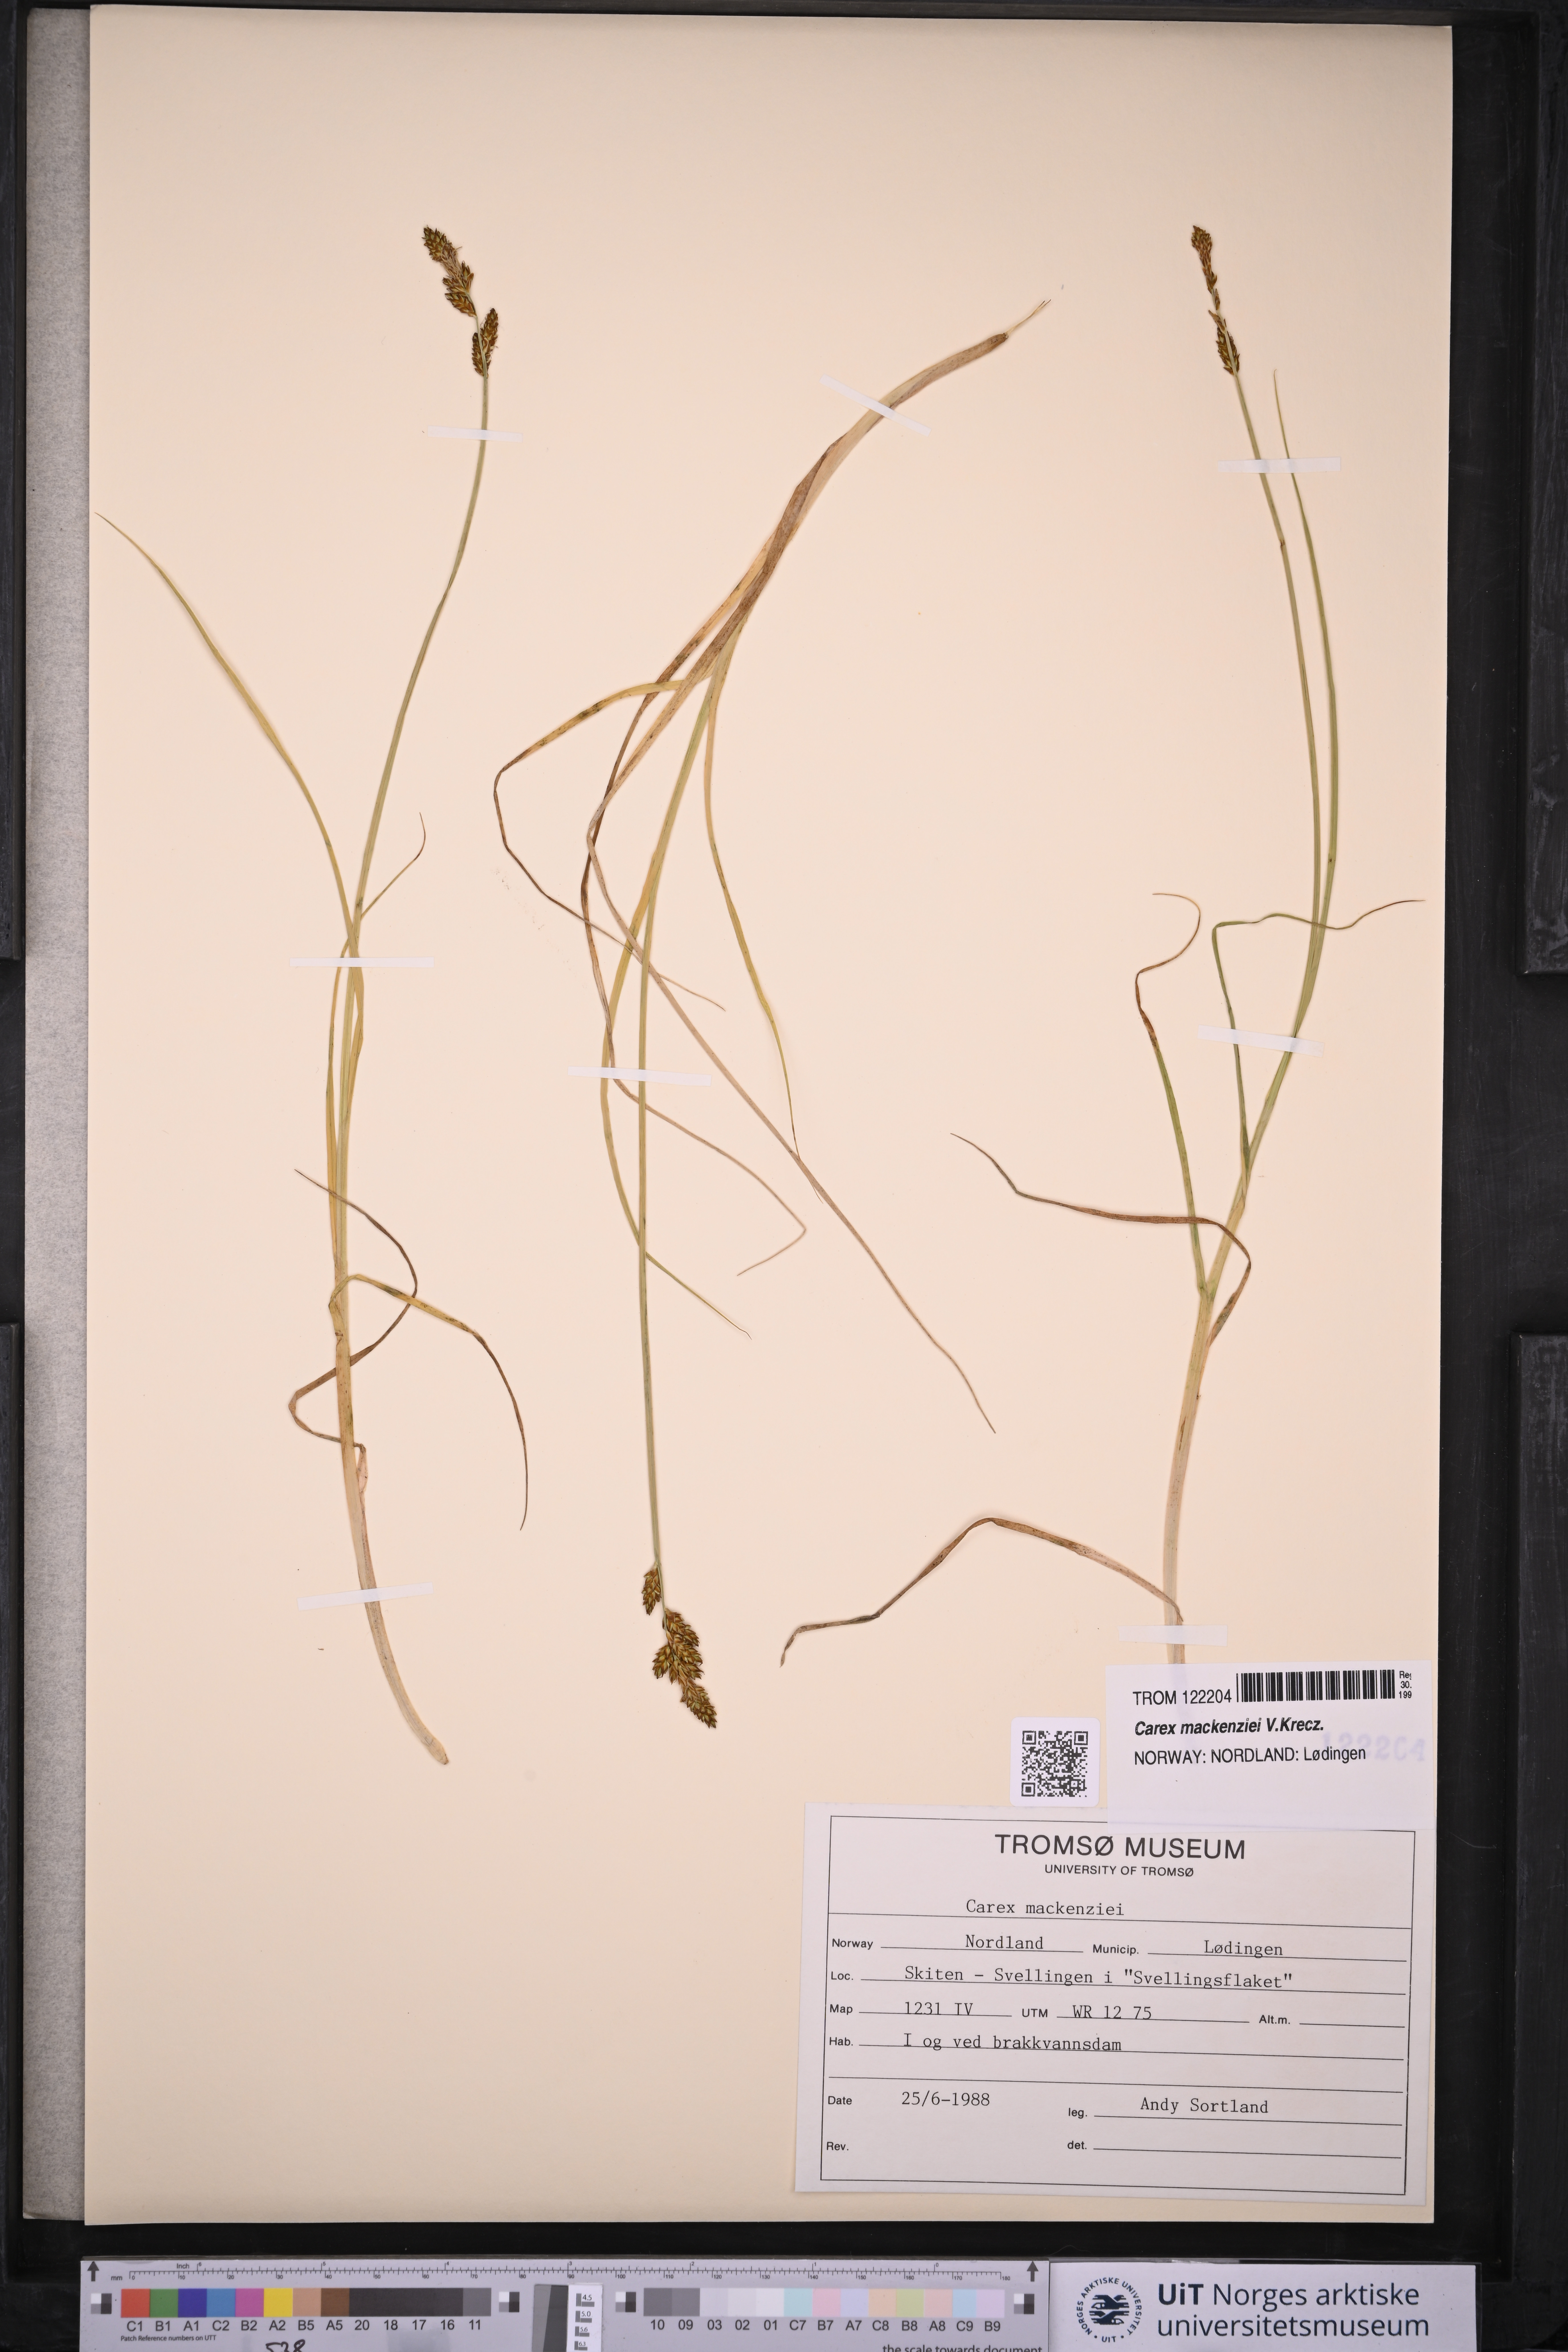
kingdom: Plantae
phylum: Tracheophyta
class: Liliopsida
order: Poales
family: Cyperaceae
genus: Carex
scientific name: Carex mackenziei
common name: Mackenzie's sedge
